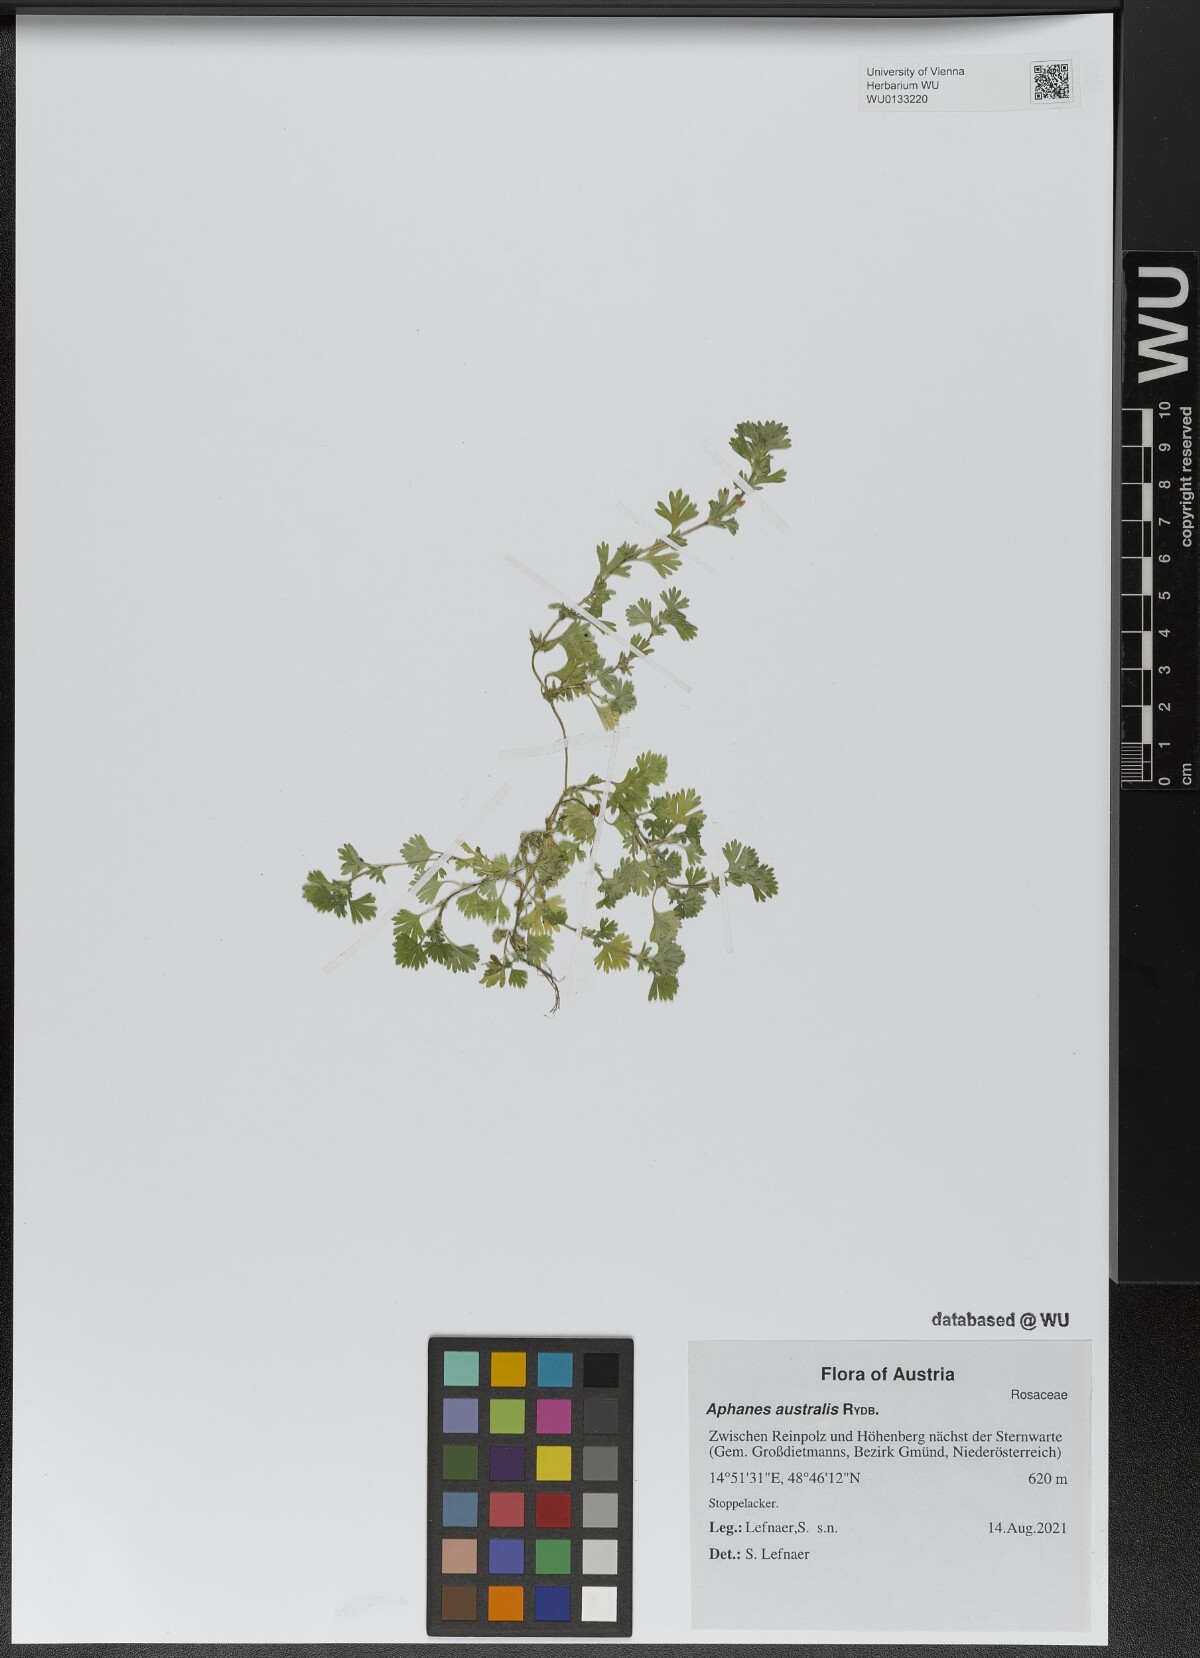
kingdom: Plantae
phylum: Tracheophyta
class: Magnoliopsida
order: Rosales
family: Rosaceae
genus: Aphanes
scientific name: Aphanes australis
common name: Slender parsley-piert
